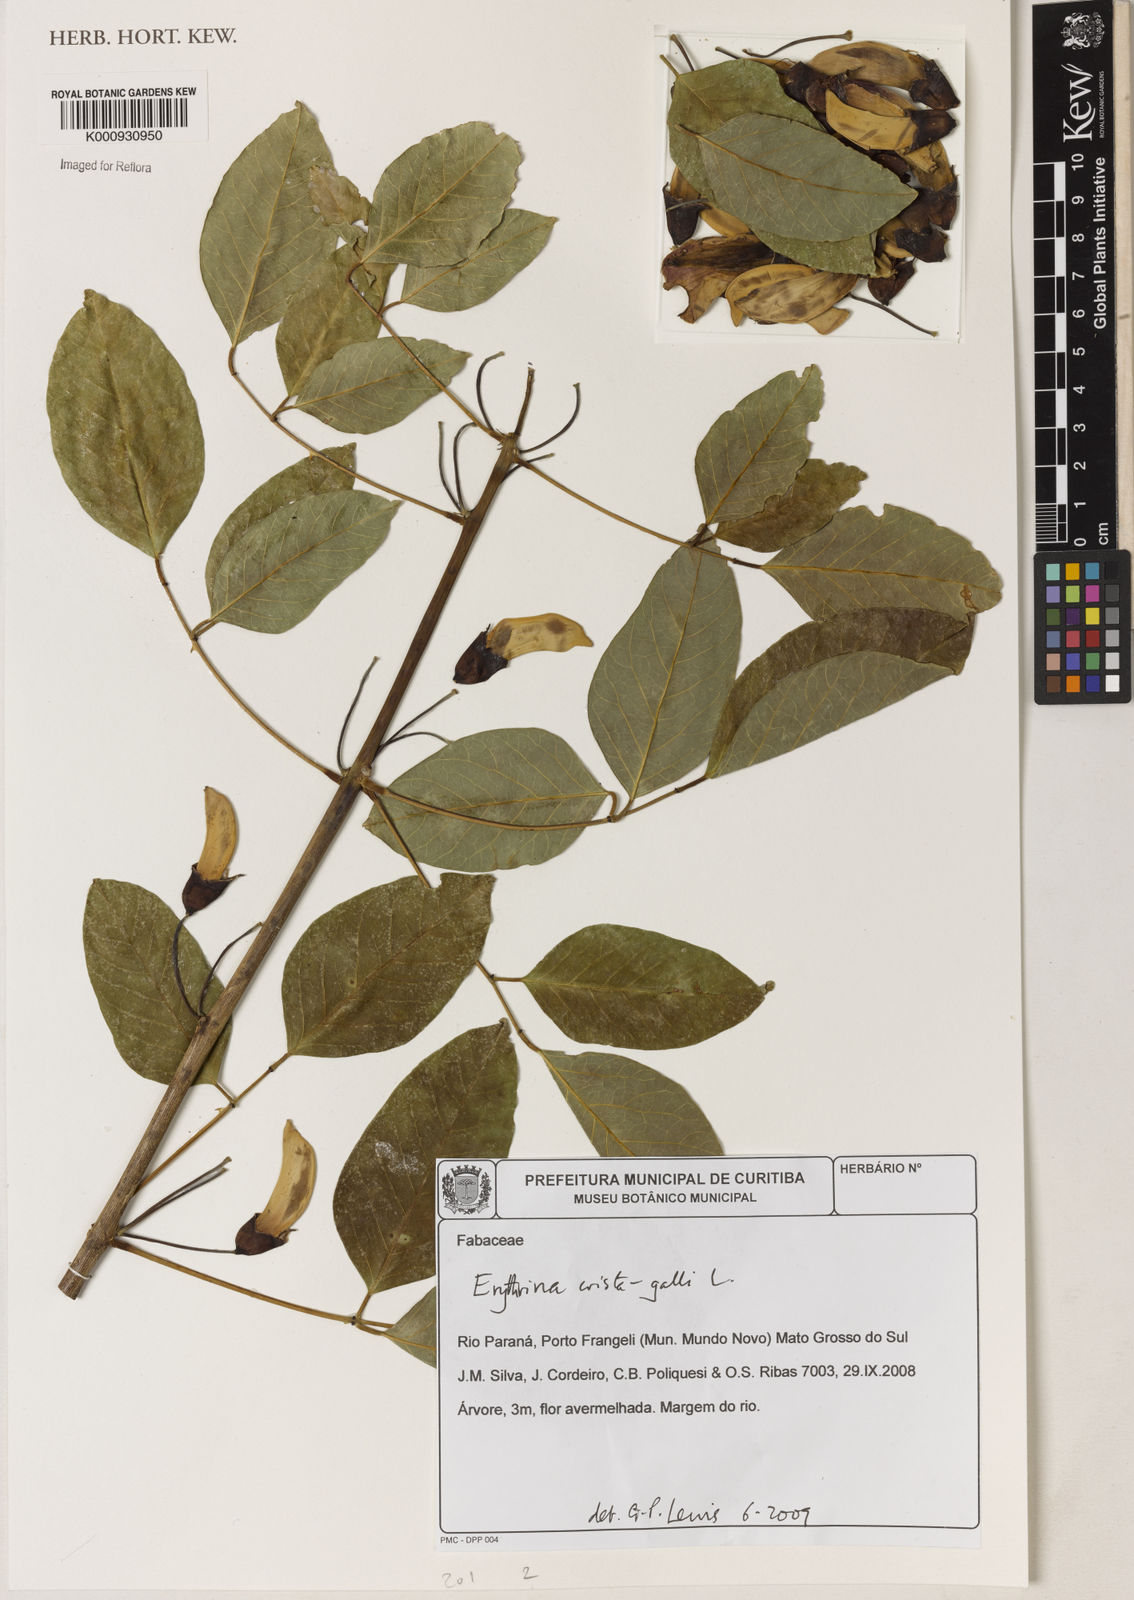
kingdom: Plantae
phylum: Tracheophyta
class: Magnoliopsida
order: Fabales
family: Fabaceae
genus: Erythrina
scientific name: Erythrina crista-galli
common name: Cockspur coral tree
